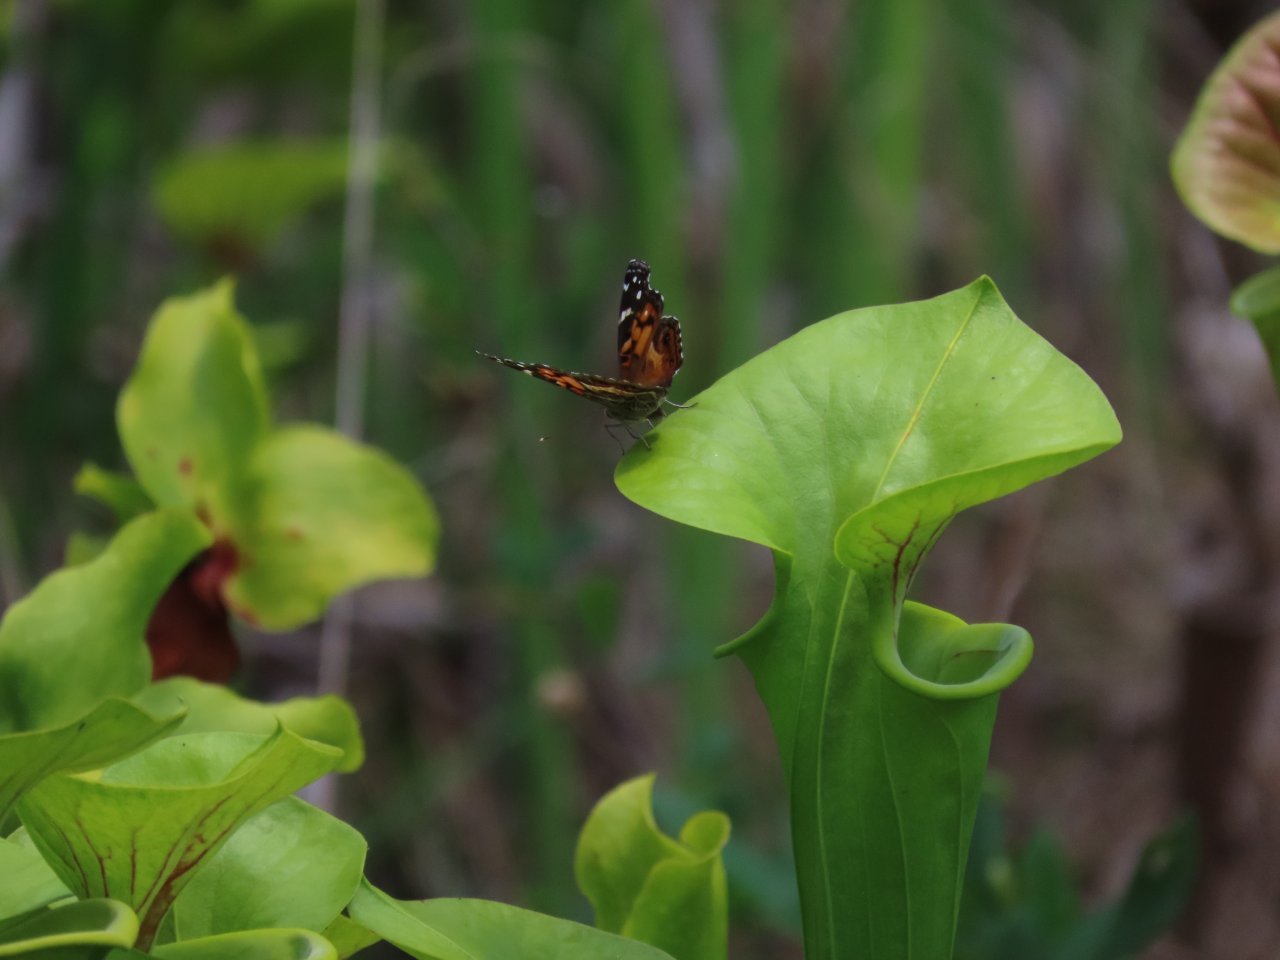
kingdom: Animalia
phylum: Arthropoda
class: Insecta
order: Lepidoptera
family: Nymphalidae
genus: Vanessa
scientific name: Vanessa virginiensis
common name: American Lady
